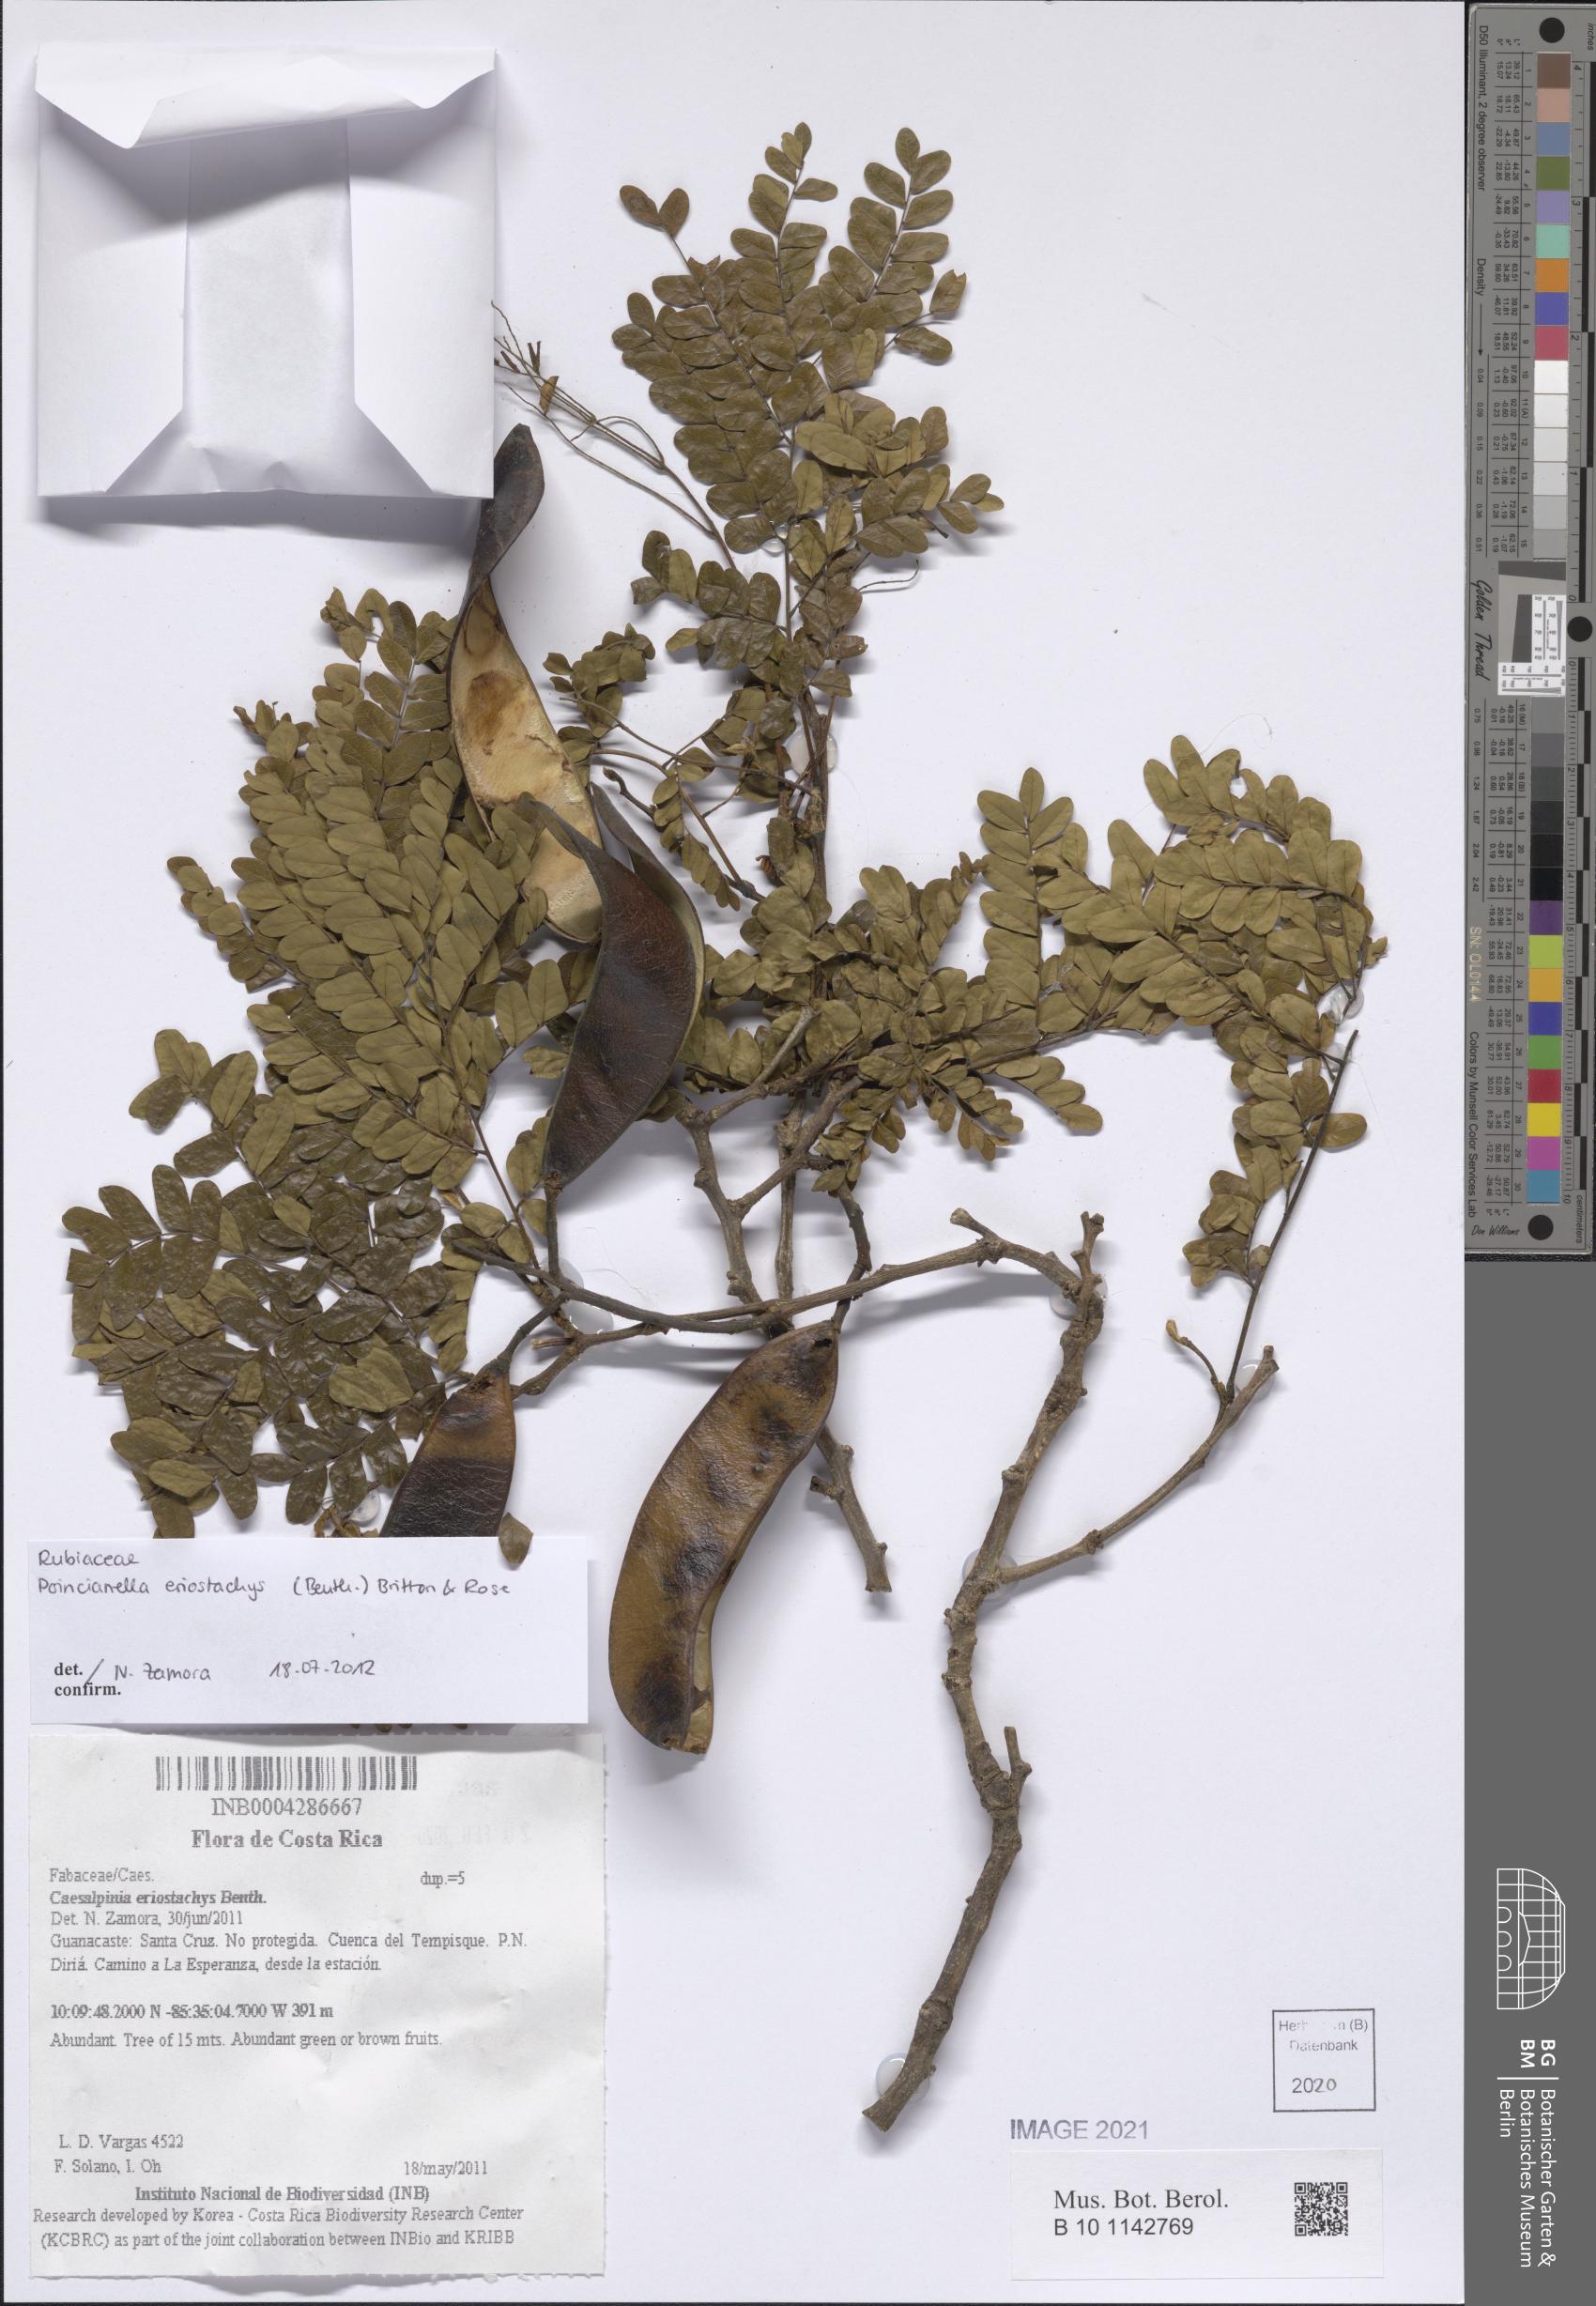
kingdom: Plantae
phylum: Tracheophyta
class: Magnoliopsida
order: Fabales
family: Fabaceae
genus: Cenostigma
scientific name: Cenostigma eriostachys
